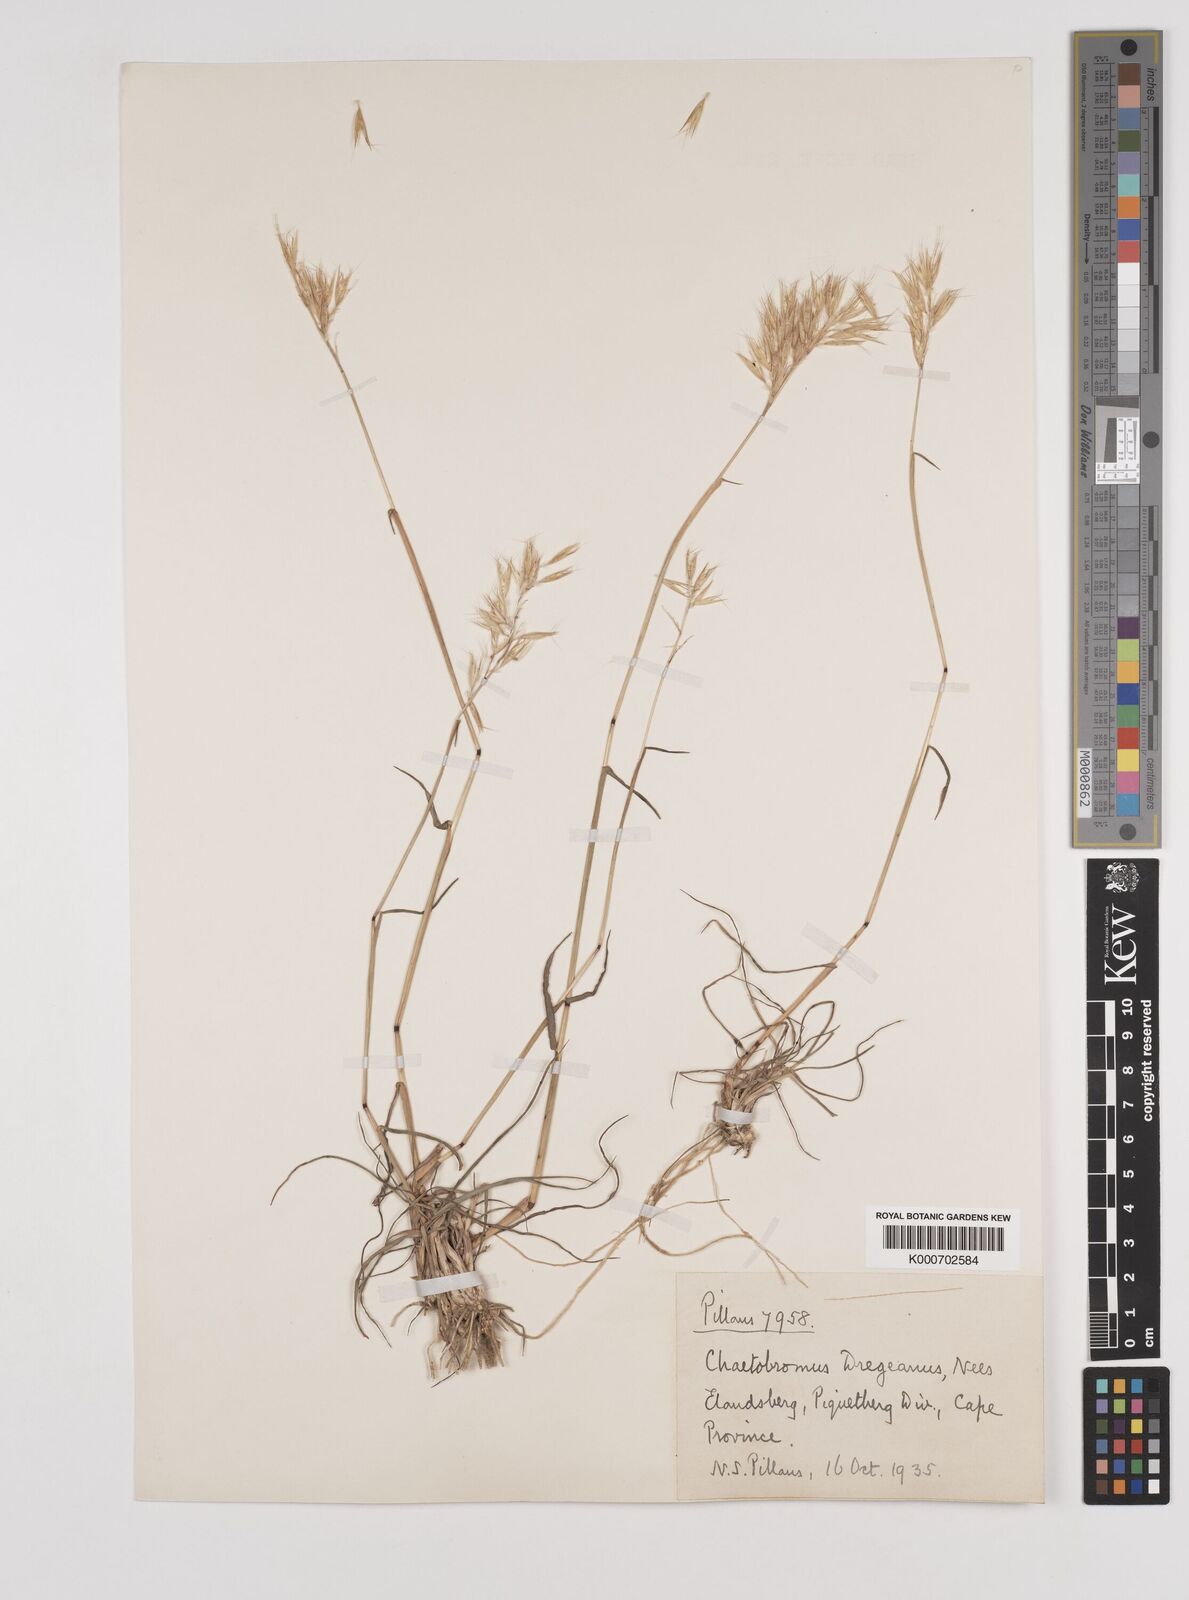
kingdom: Plantae
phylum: Tracheophyta
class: Liliopsida
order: Poales
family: Poaceae
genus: Chaetobromus
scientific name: Chaetobromus involucratus
